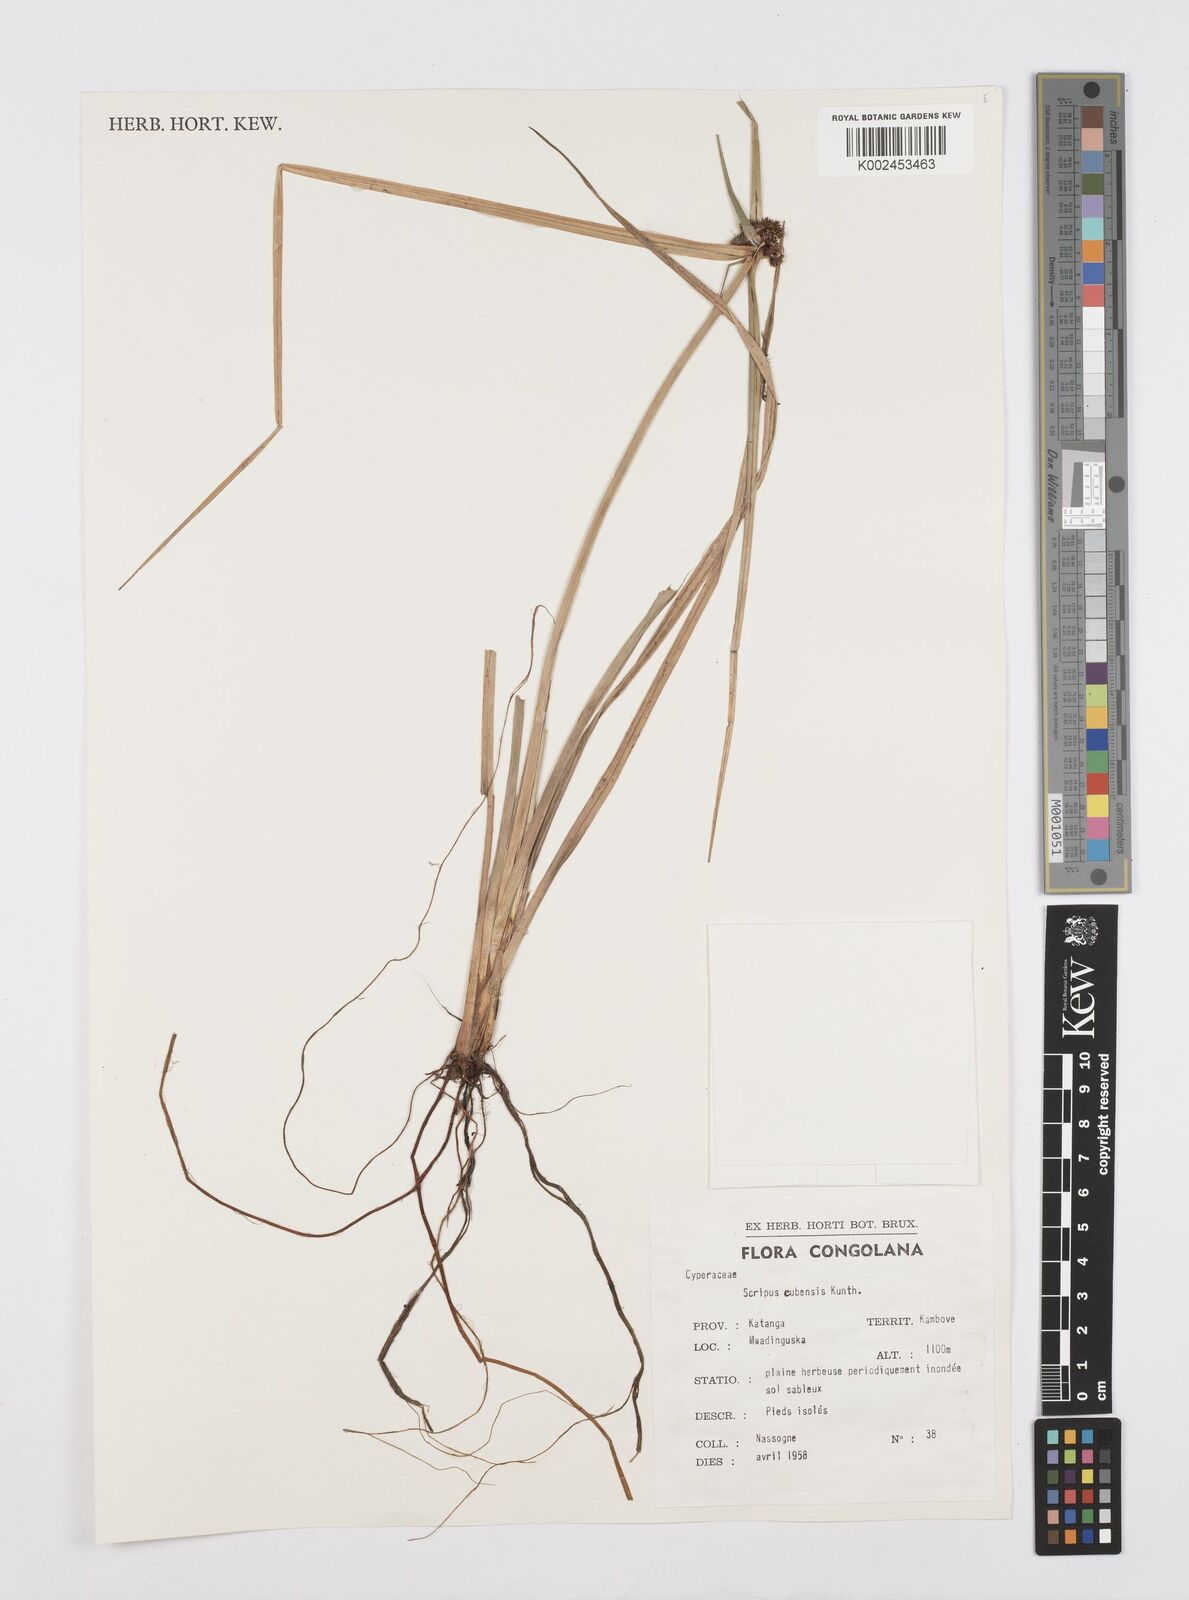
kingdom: Plantae
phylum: Tracheophyta
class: Liliopsida
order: Poales
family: Cyperaceae
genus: Cyperus
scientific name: Cyperus elegans
